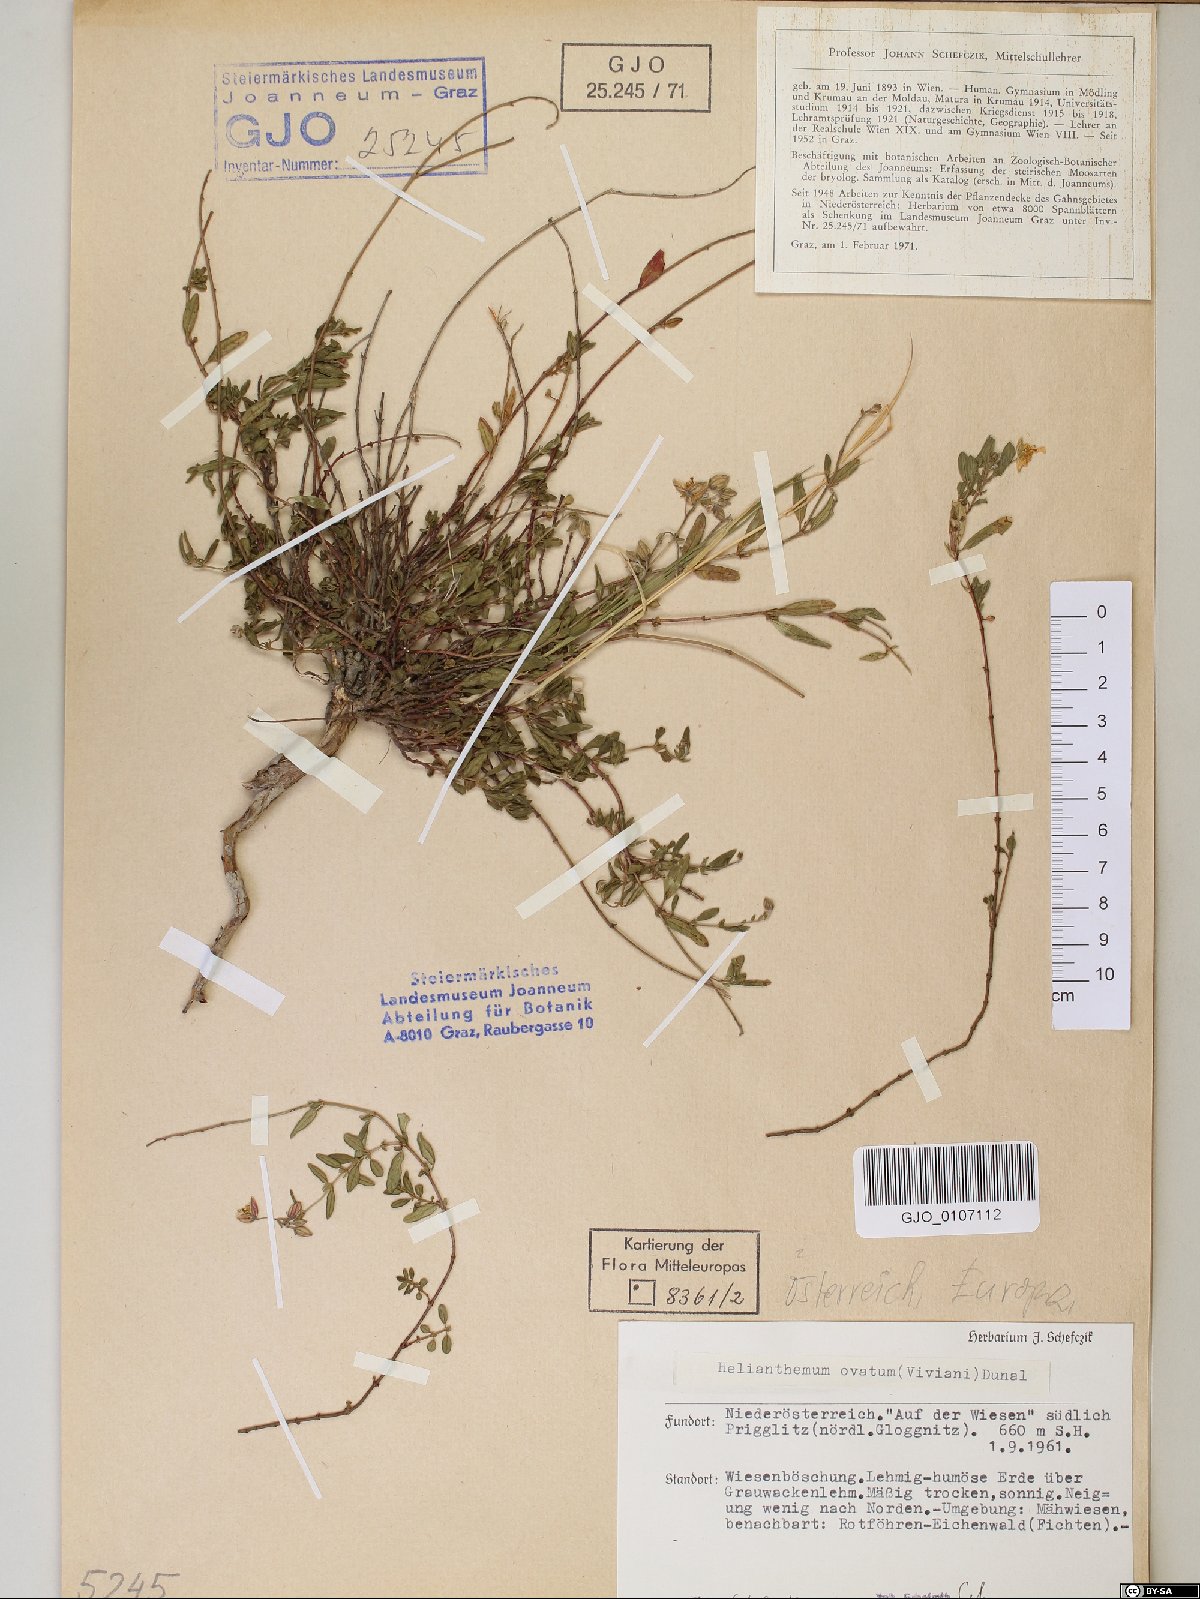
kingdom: Plantae
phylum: Tracheophyta
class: Magnoliopsida
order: Malvales
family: Cistaceae
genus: Helianthemum
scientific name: Helianthemum nummularium
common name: Common rock-rose
